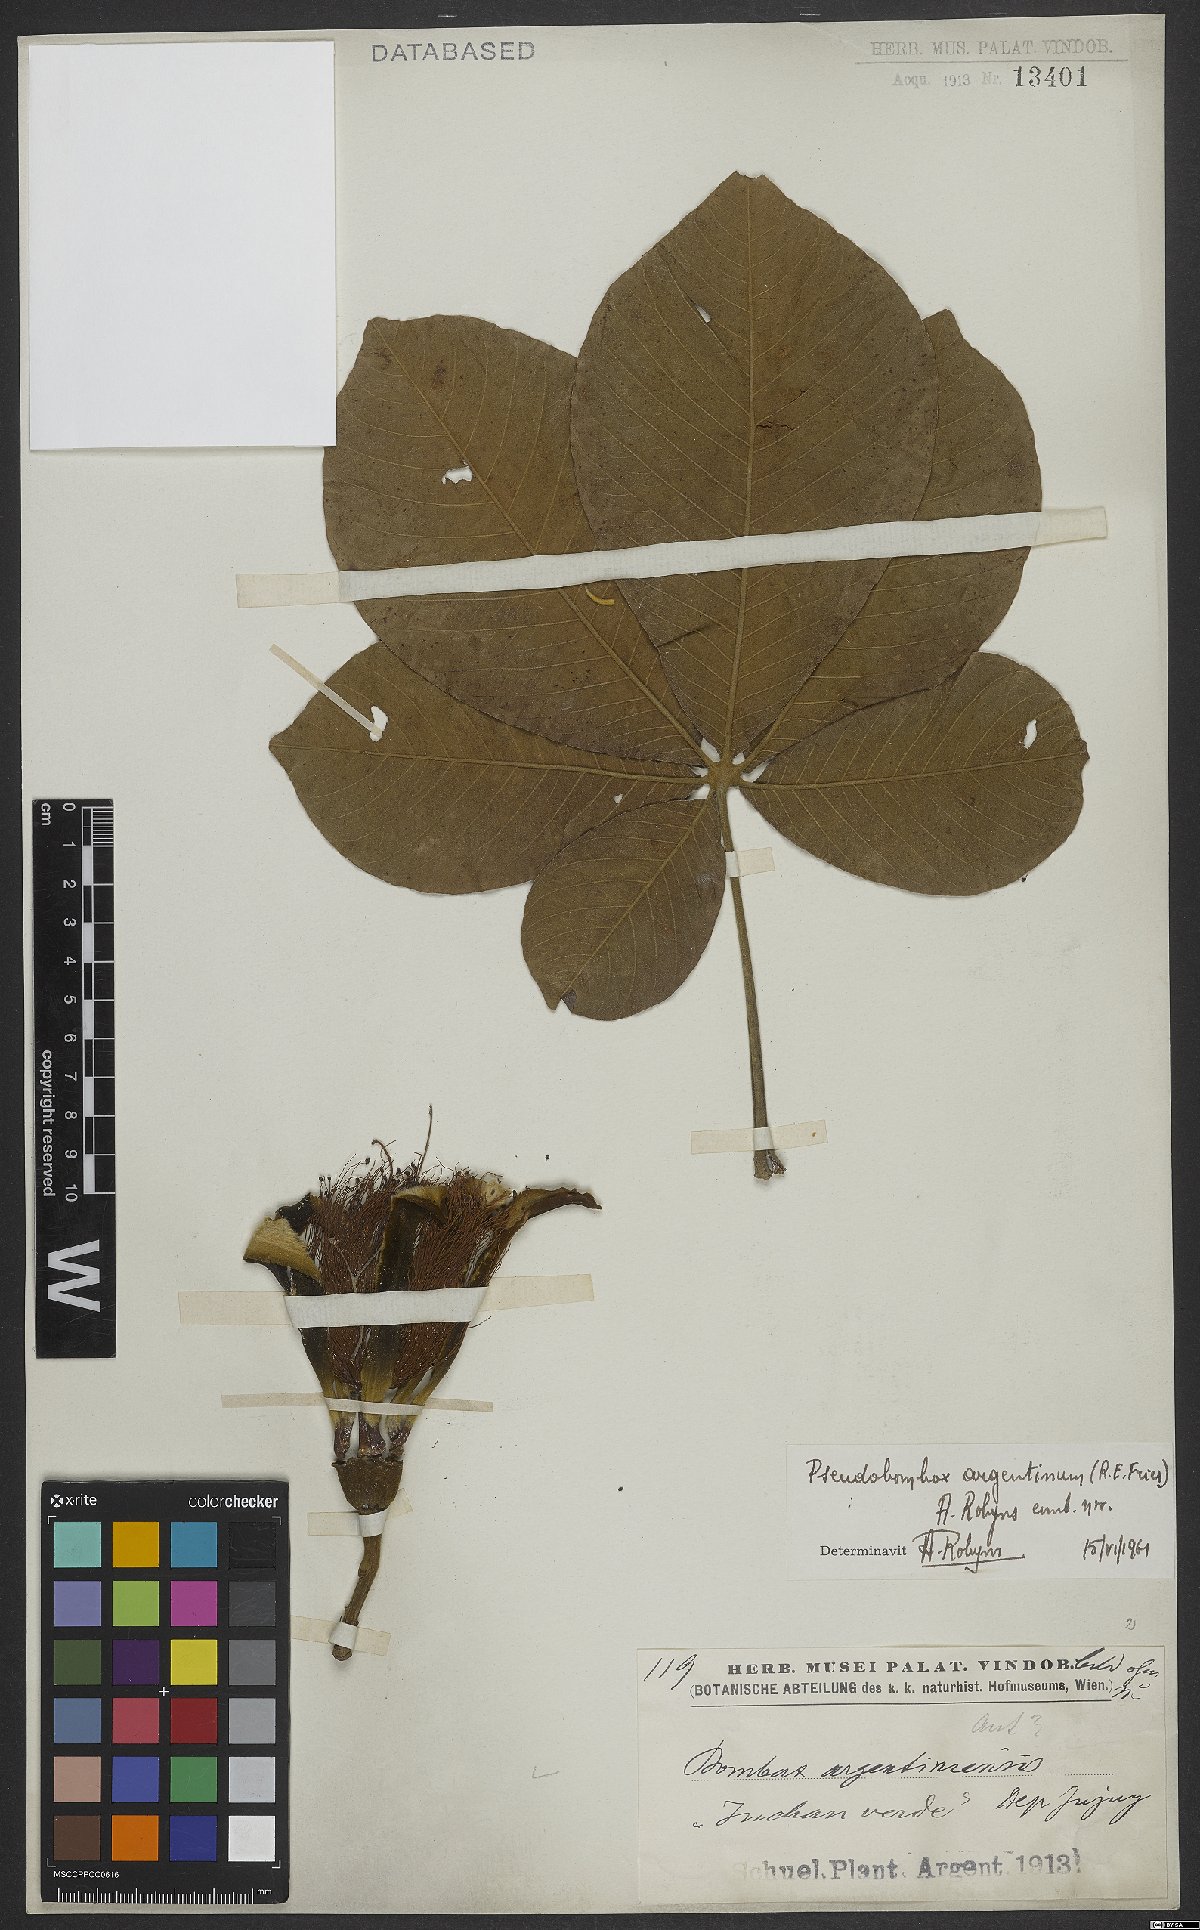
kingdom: Plantae
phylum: Tracheophyta
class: Magnoliopsida
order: Malvales
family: Malvaceae
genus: Pseudobombax
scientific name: Pseudobombax argentinum
